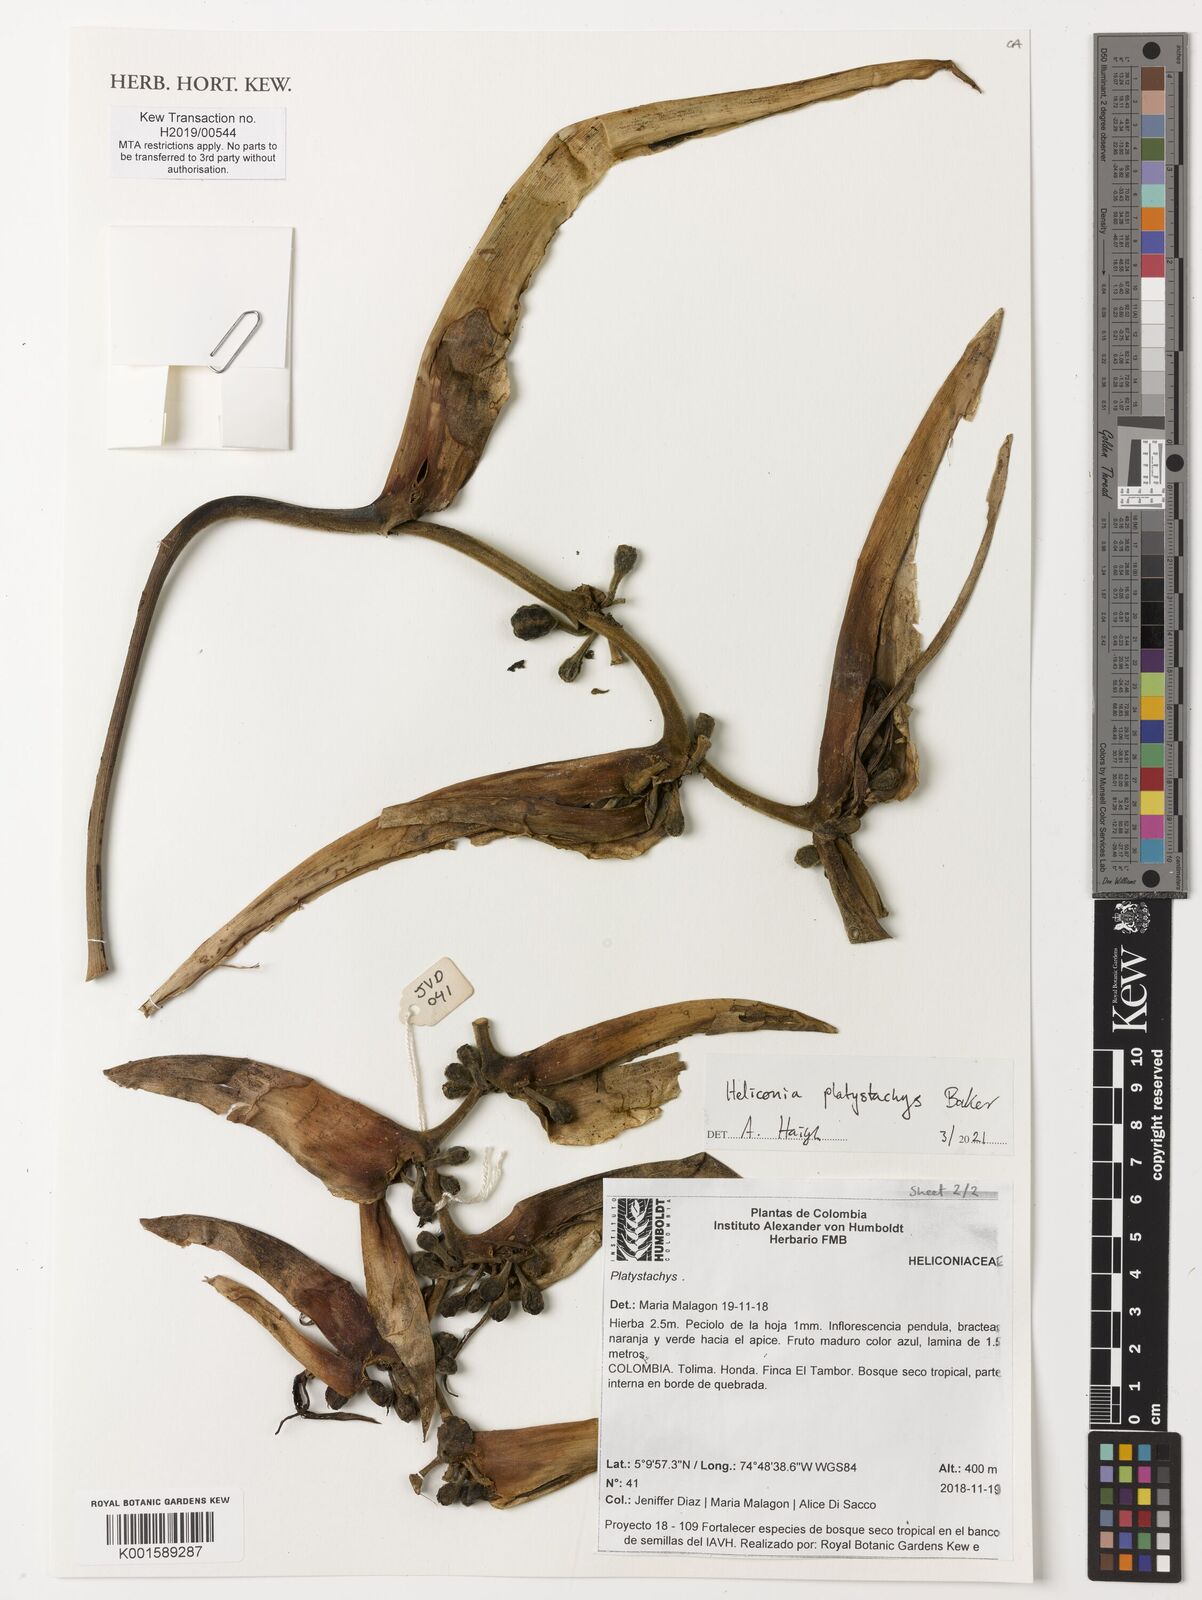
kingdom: Plantae
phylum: Tracheophyta
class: Liliopsida
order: Zingiberales
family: Heliconiaceae
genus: Heliconia
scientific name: Heliconia platystachys
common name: False bird of paradise
